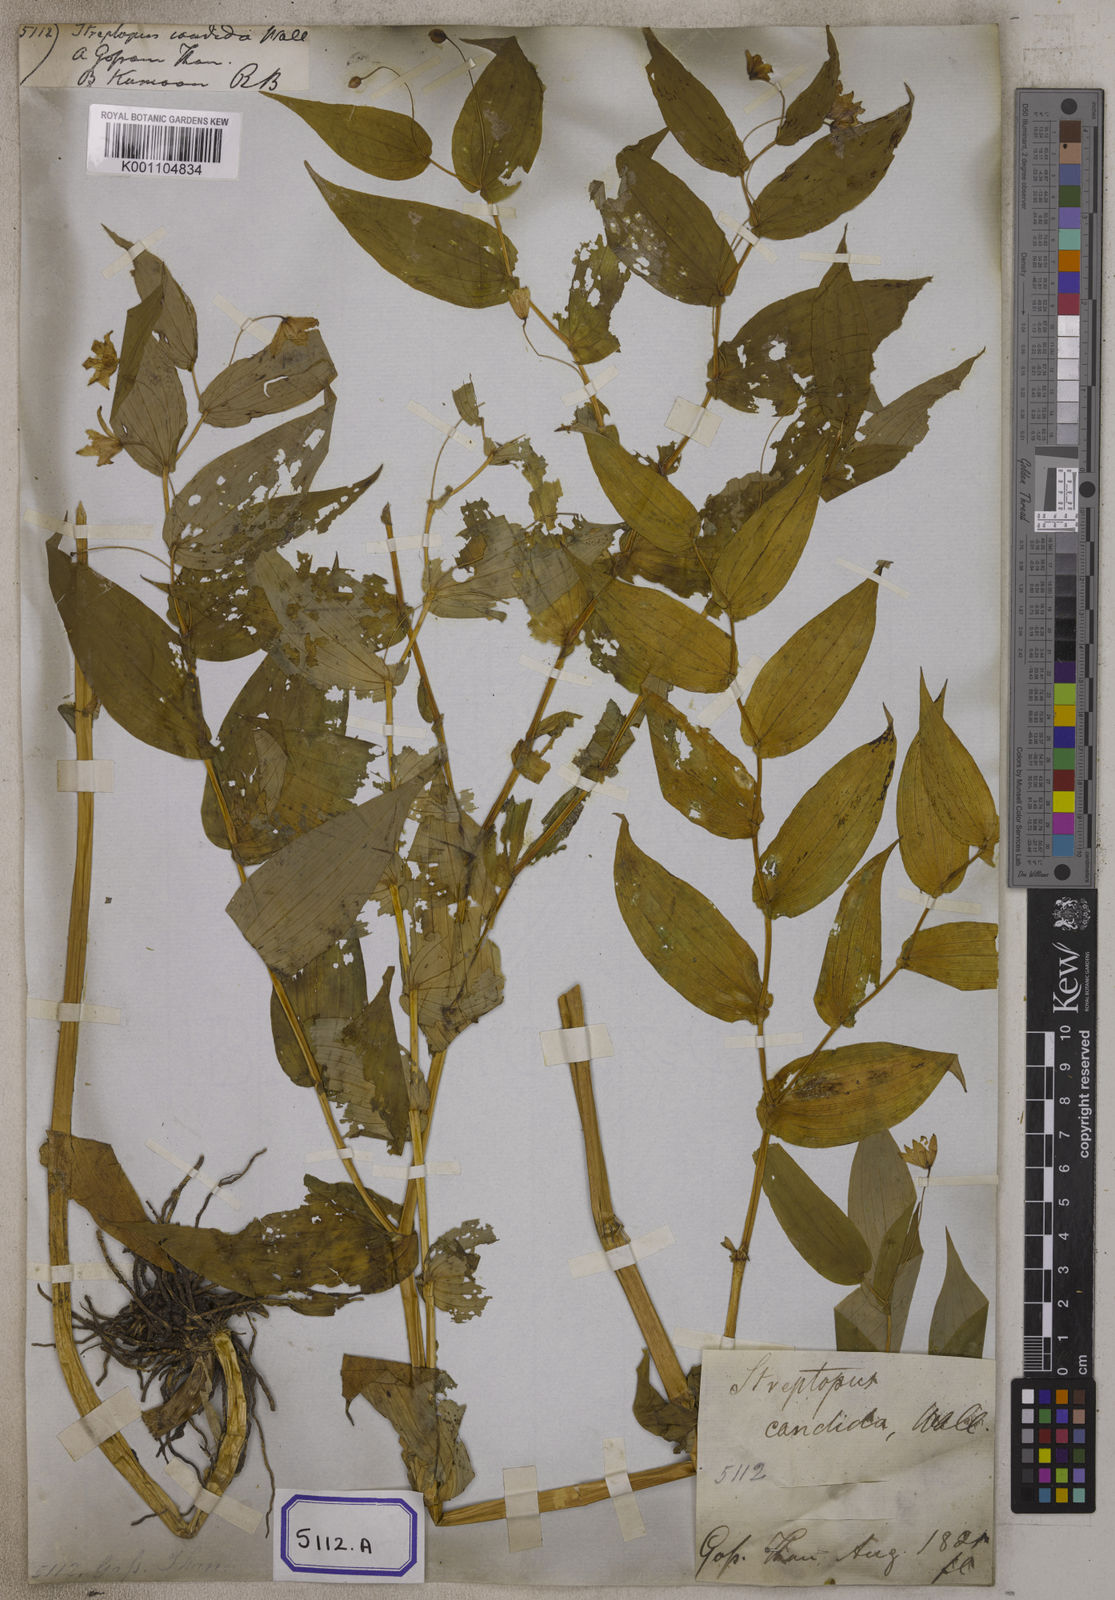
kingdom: Plantae
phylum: Tracheophyta
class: Liliopsida
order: Liliales
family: Liliaceae
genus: Streptopus
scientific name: Streptopus
